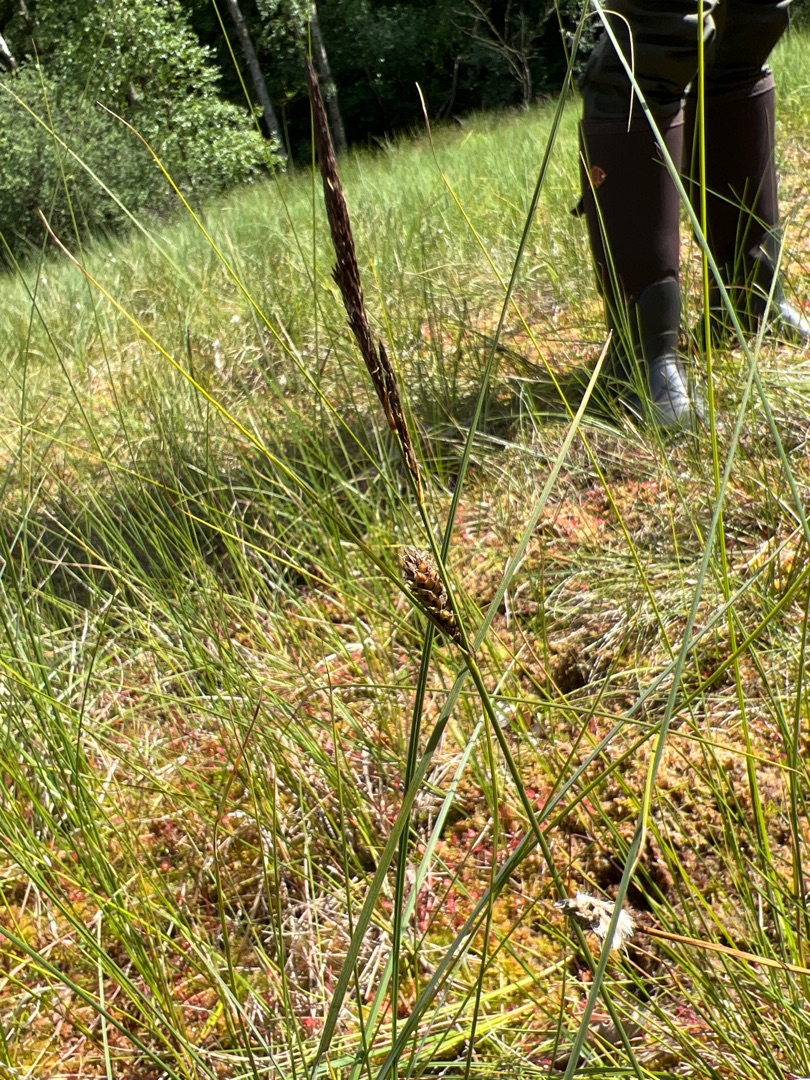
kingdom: Plantae
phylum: Tracheophyta
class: Liliopsida
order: Poales
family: Cyperaceae
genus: Carex
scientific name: Carex lasiocarpa
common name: Tråd-star
